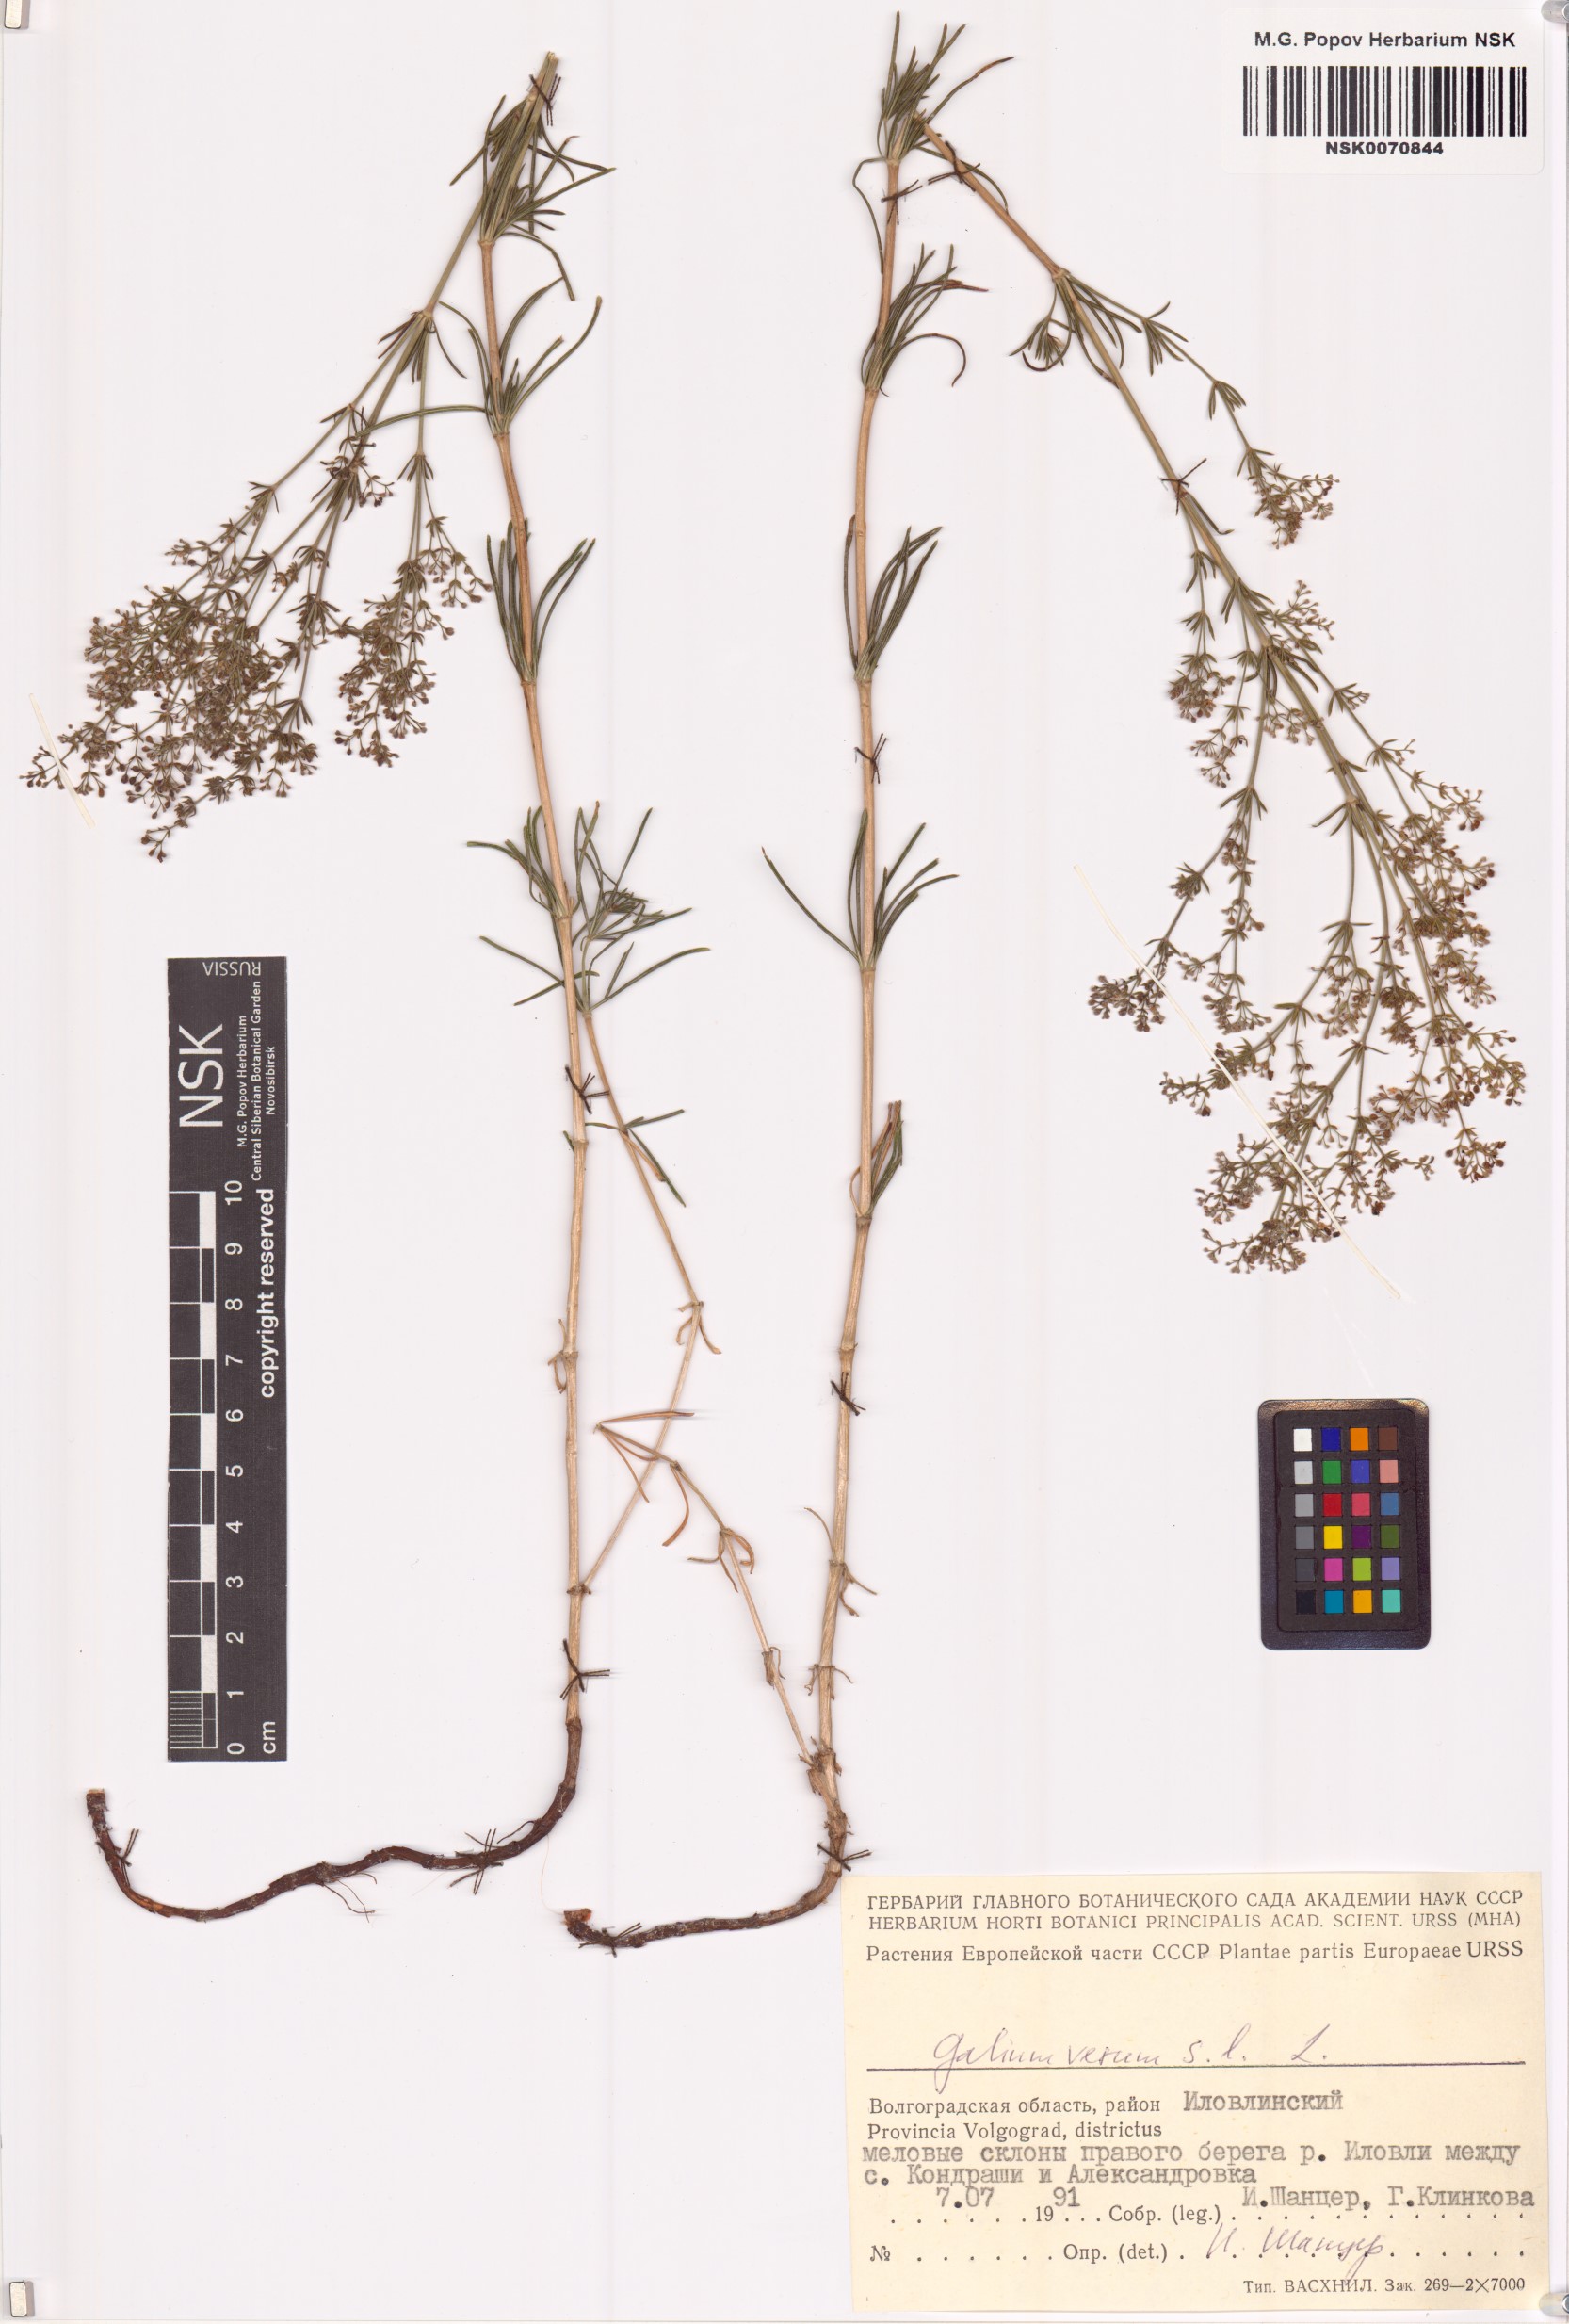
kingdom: Plantae
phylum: Tracheophyta
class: Magnoliopsida
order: Gentianales
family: Rubiaceae
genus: Galium
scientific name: Galium verum
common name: Lady's bedstraw
